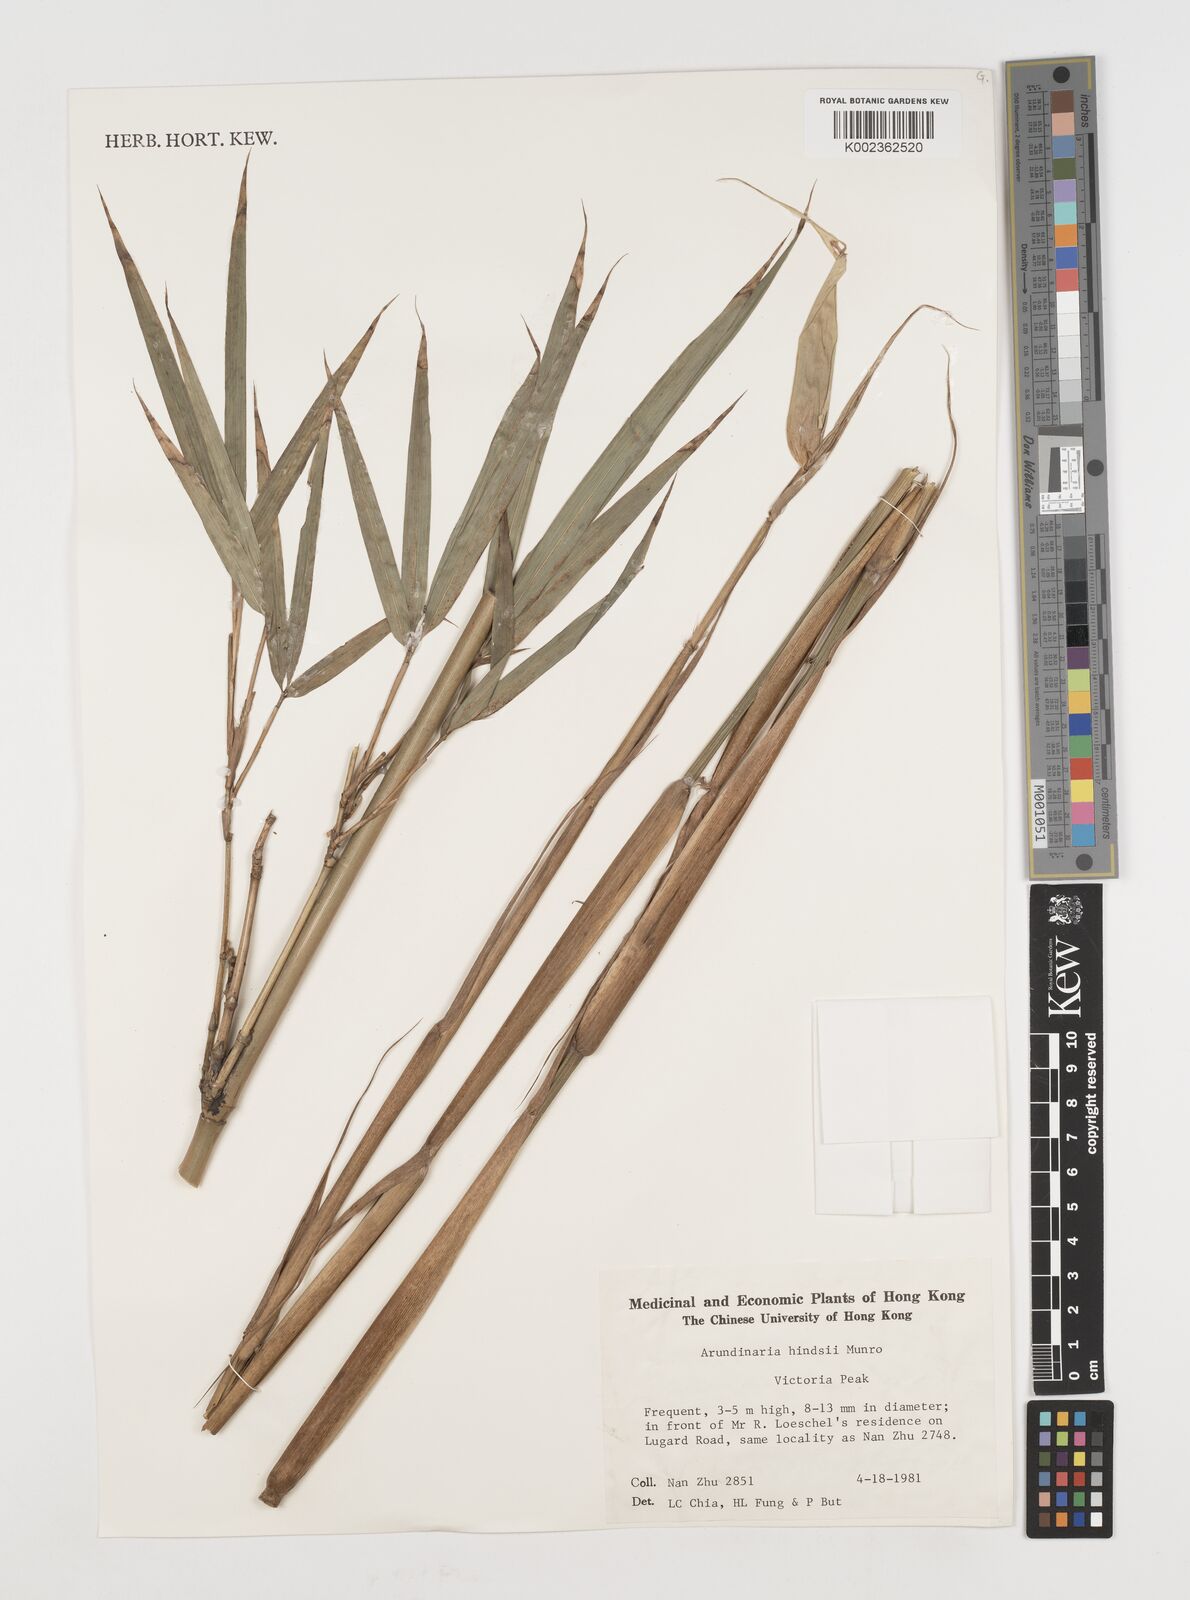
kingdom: Plantae
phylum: Tracheophyta
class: Liliopsida
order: Poales
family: Poaceae
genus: Pseudosasa
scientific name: Pseudosasa hindsii
